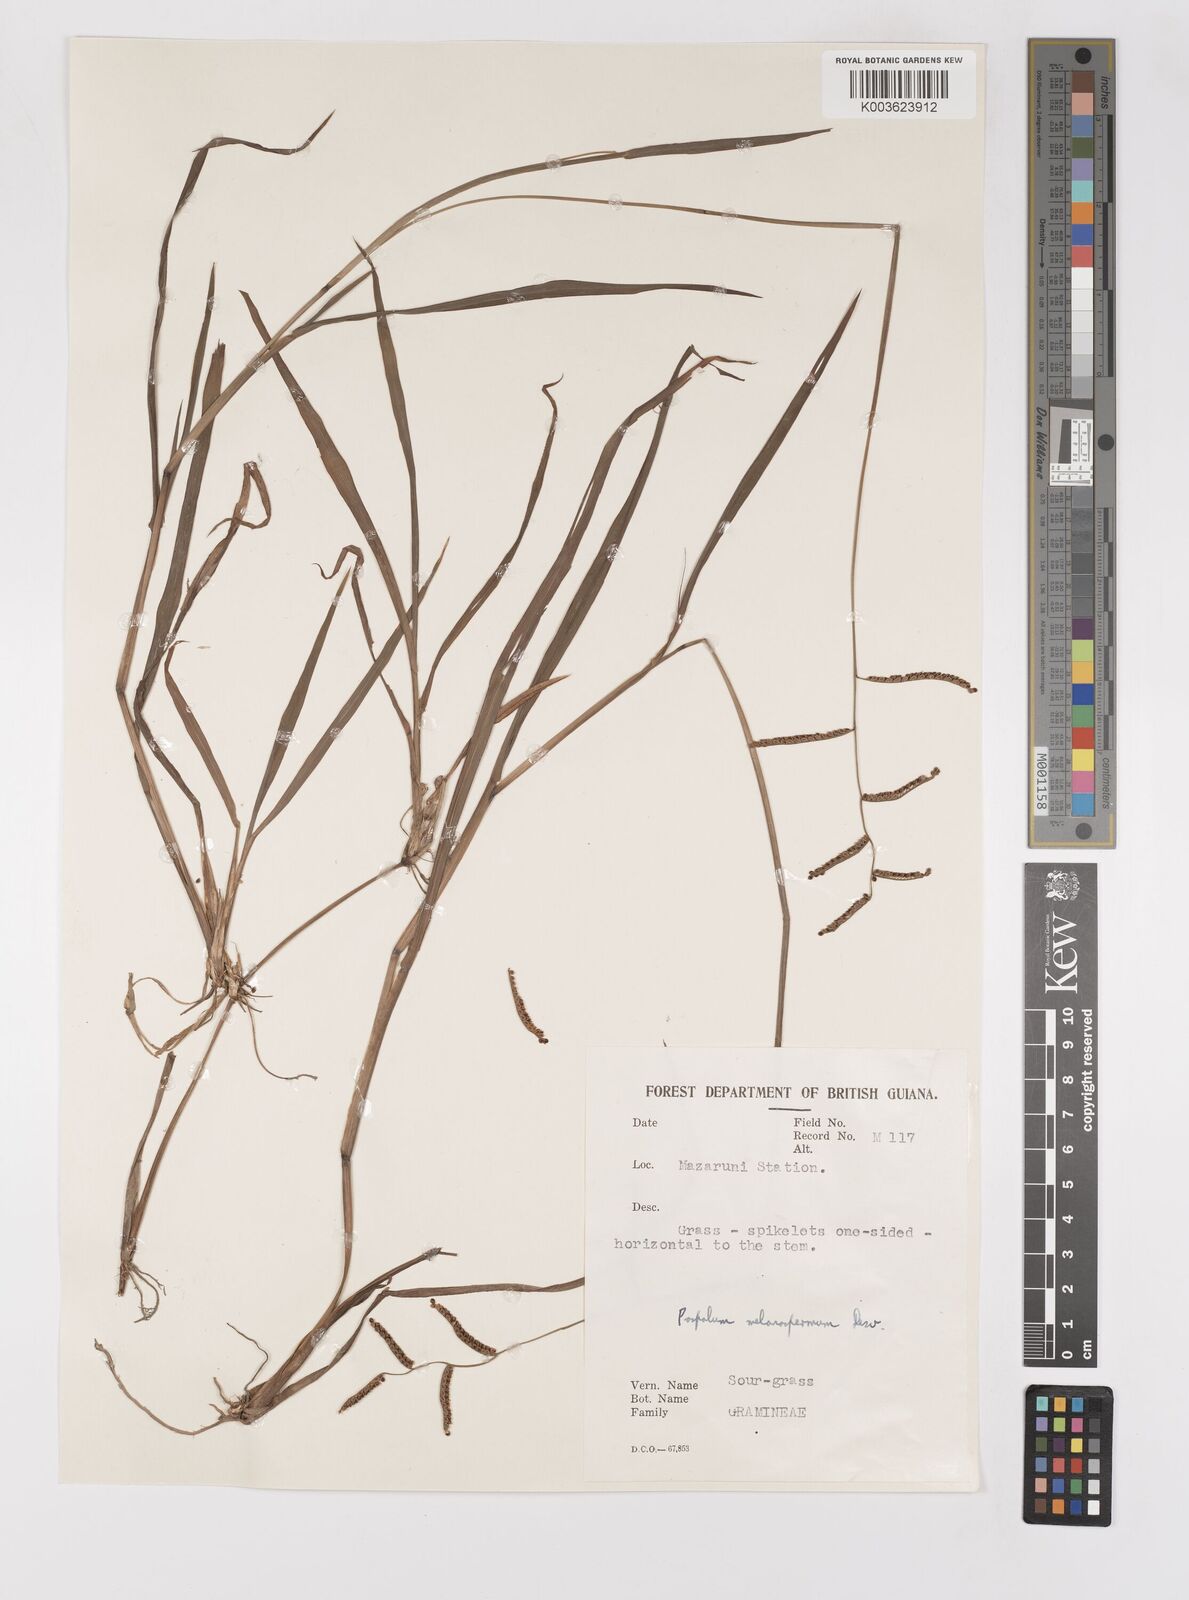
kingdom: Plantae
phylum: Tracheophyta
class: Liliopsida
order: Poales
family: Poaceae
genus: Paspalum
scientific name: Paspalum melanospermum
